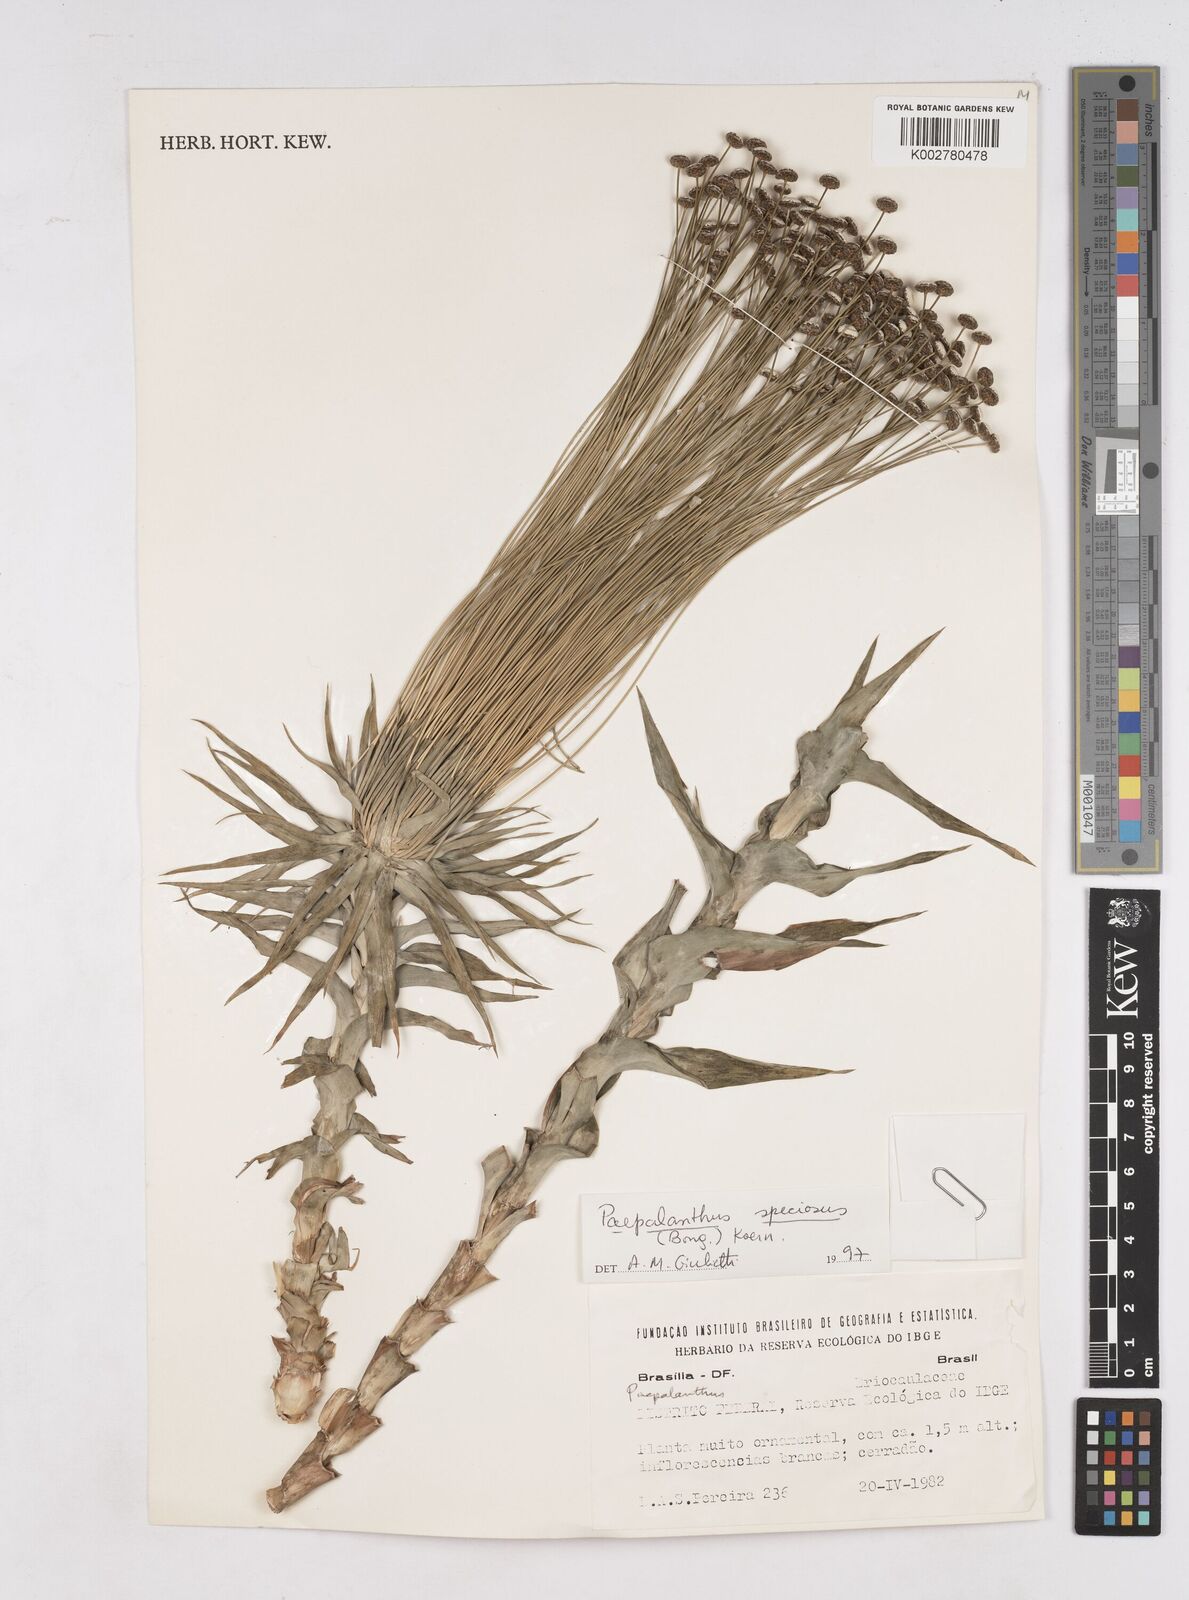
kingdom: Plantae
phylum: Tracheophyta
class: Liliopsida
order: Poales
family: Eriocaulaceae
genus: Paepalanthus
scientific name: Paepalanthus chiquitensis
